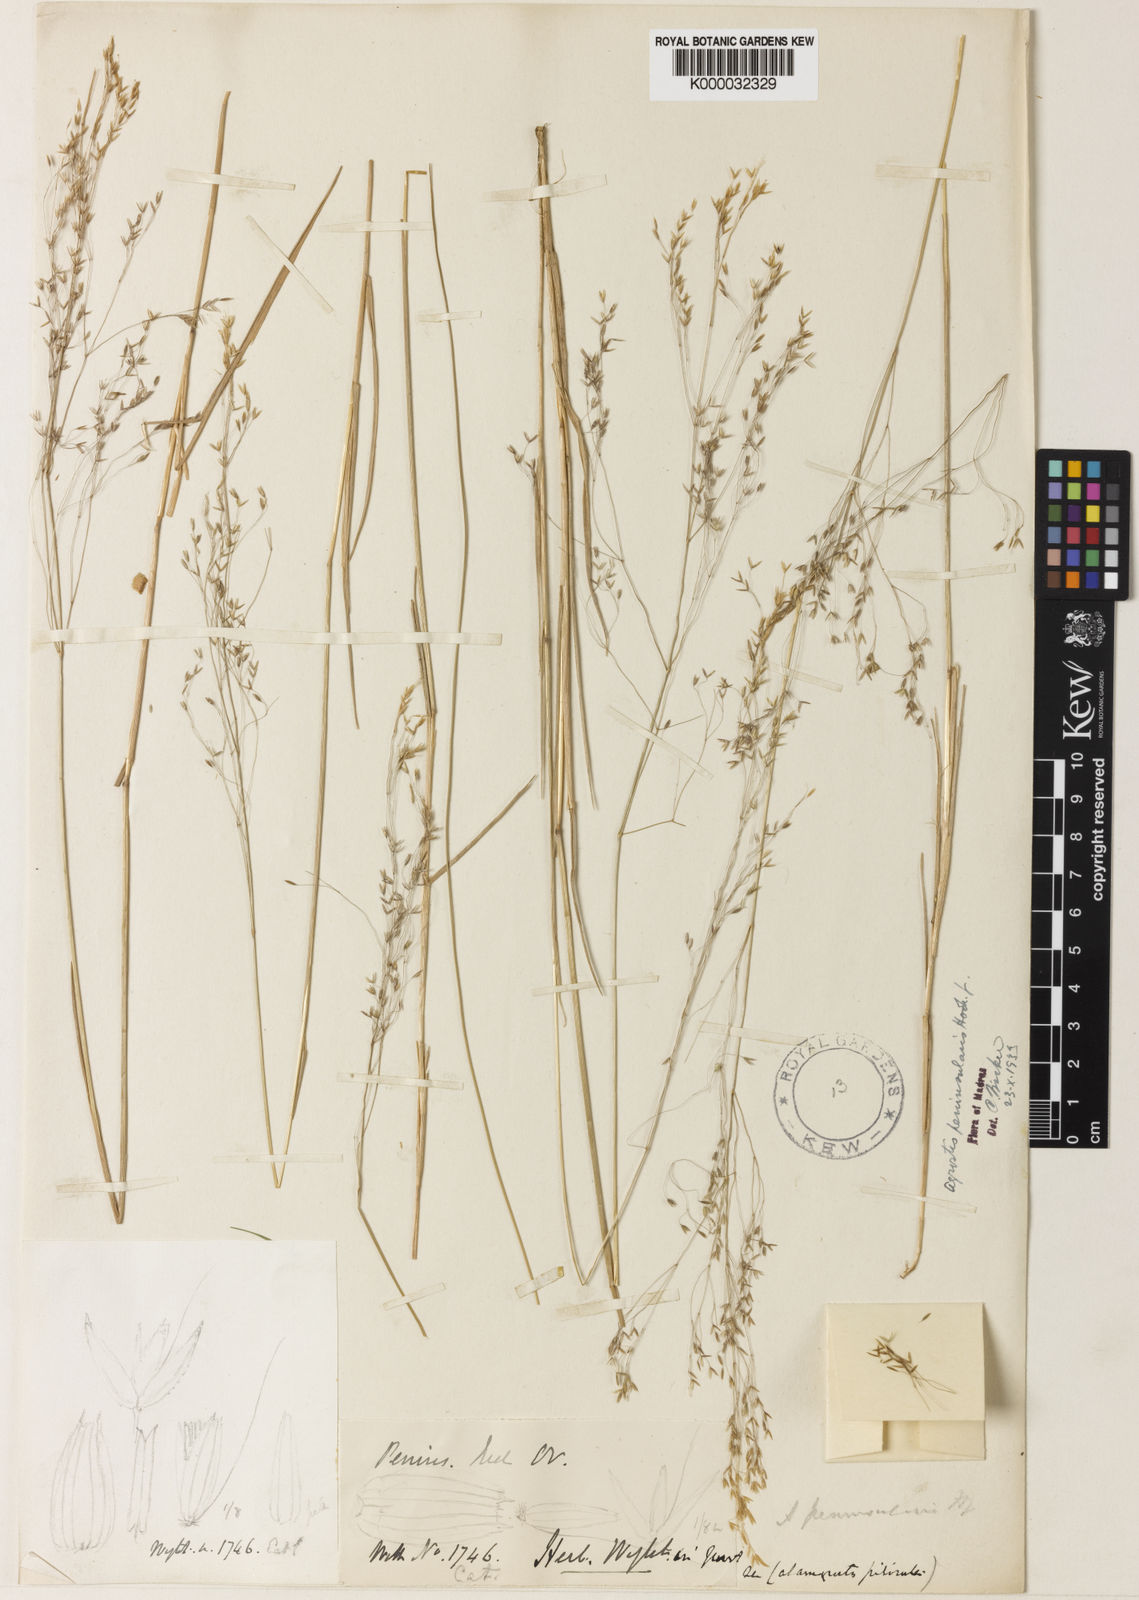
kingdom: Plantae
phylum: Tracheophyta
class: Liliopsida
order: Poales
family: Poaceae
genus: Agrostis
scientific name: Agrostis peninsularis
